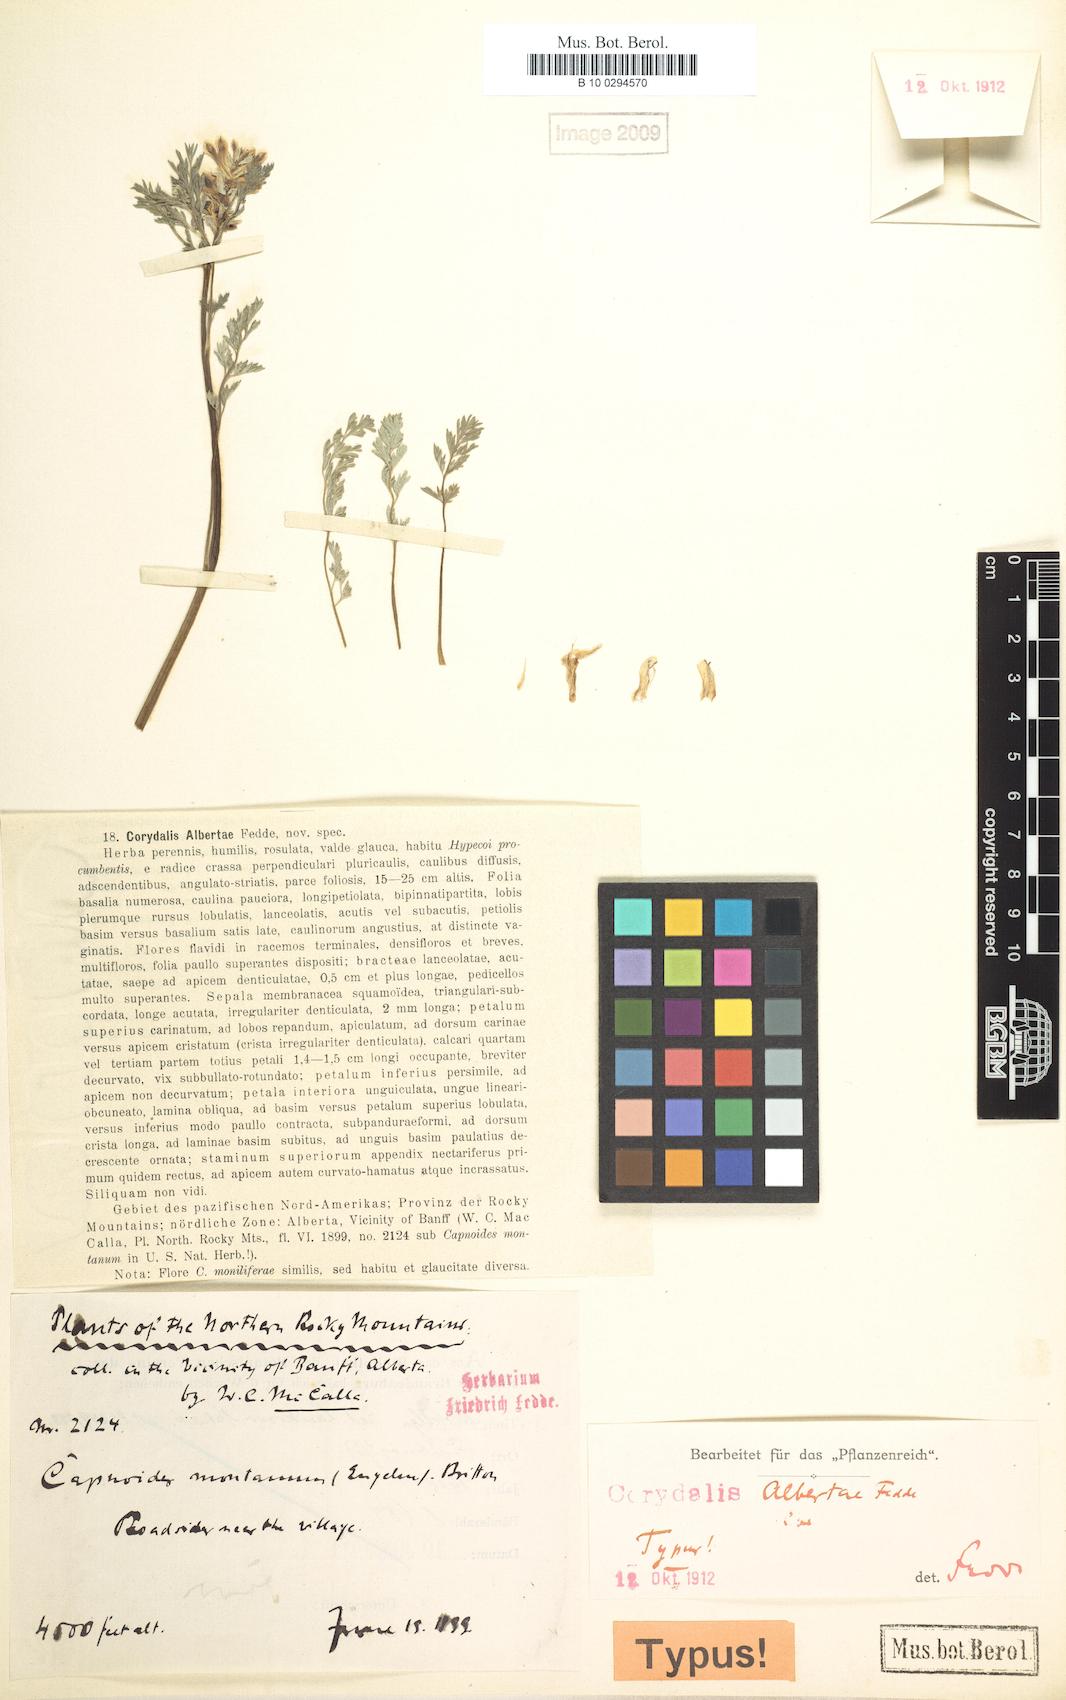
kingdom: Plantae
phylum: Tracheophyta
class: Magnoliopsida
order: Ranunculales
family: Papaveraceae
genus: Corydalis
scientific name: Corydalis aurea
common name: Golden corydalis
